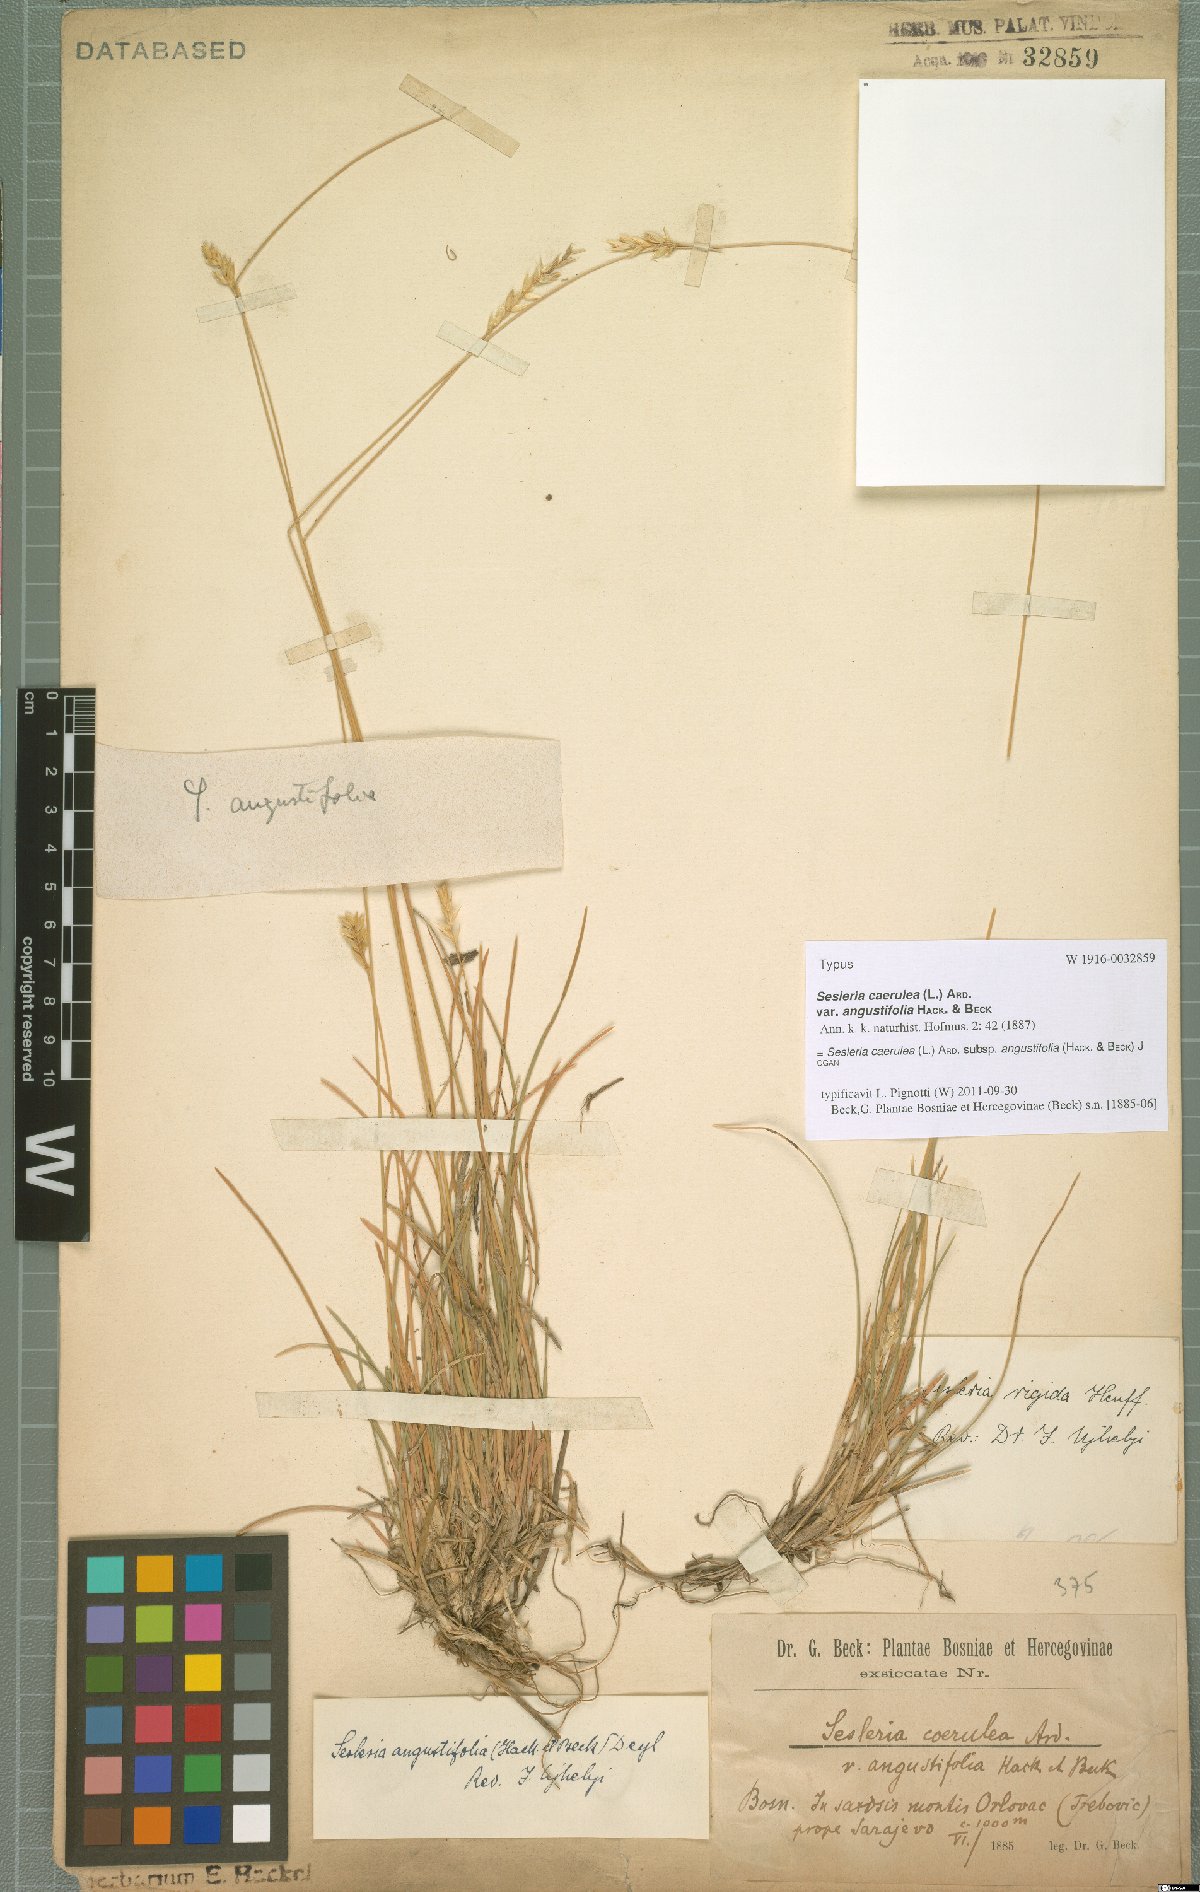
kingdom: Plantae
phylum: Tracheophyta
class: Liliopsida
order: Poales
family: Poaceae
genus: Sesleria
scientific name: Sesleria angustifolia
